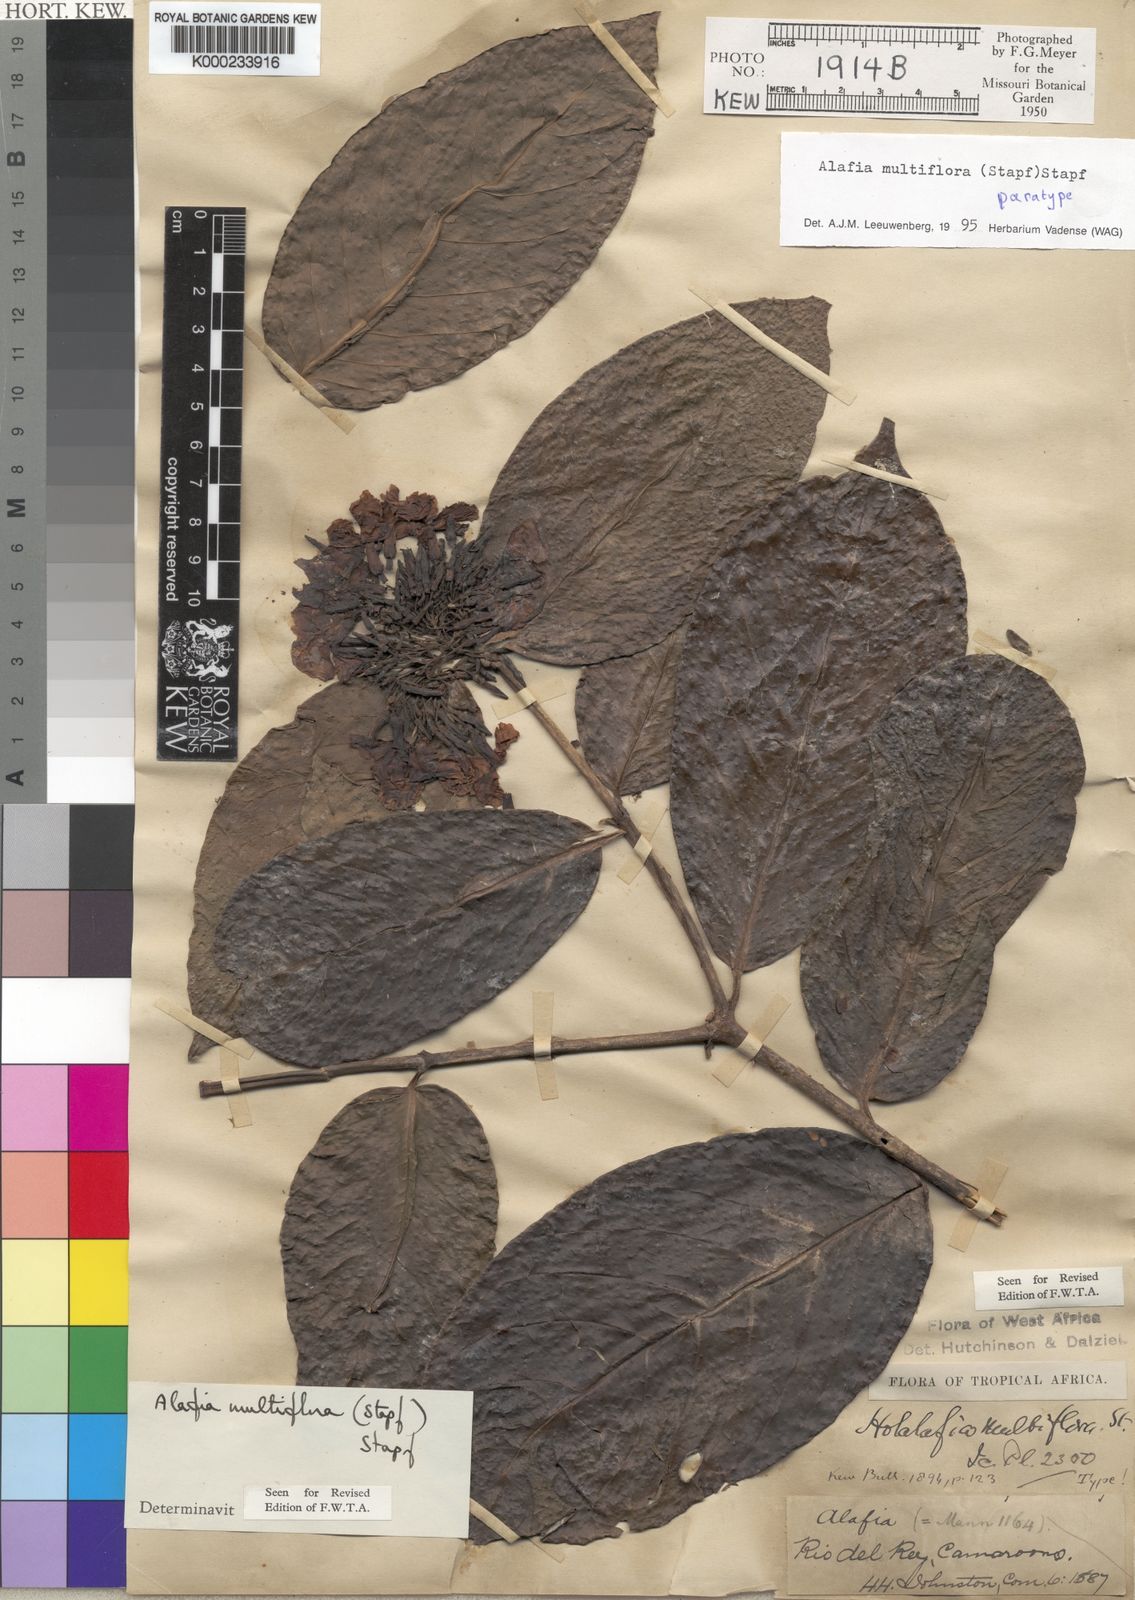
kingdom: Plantae
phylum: Tracheophyta
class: Magnoliopsida
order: Gentianales
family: Apocynaceae
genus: Alafia
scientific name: Alafia multiflora
